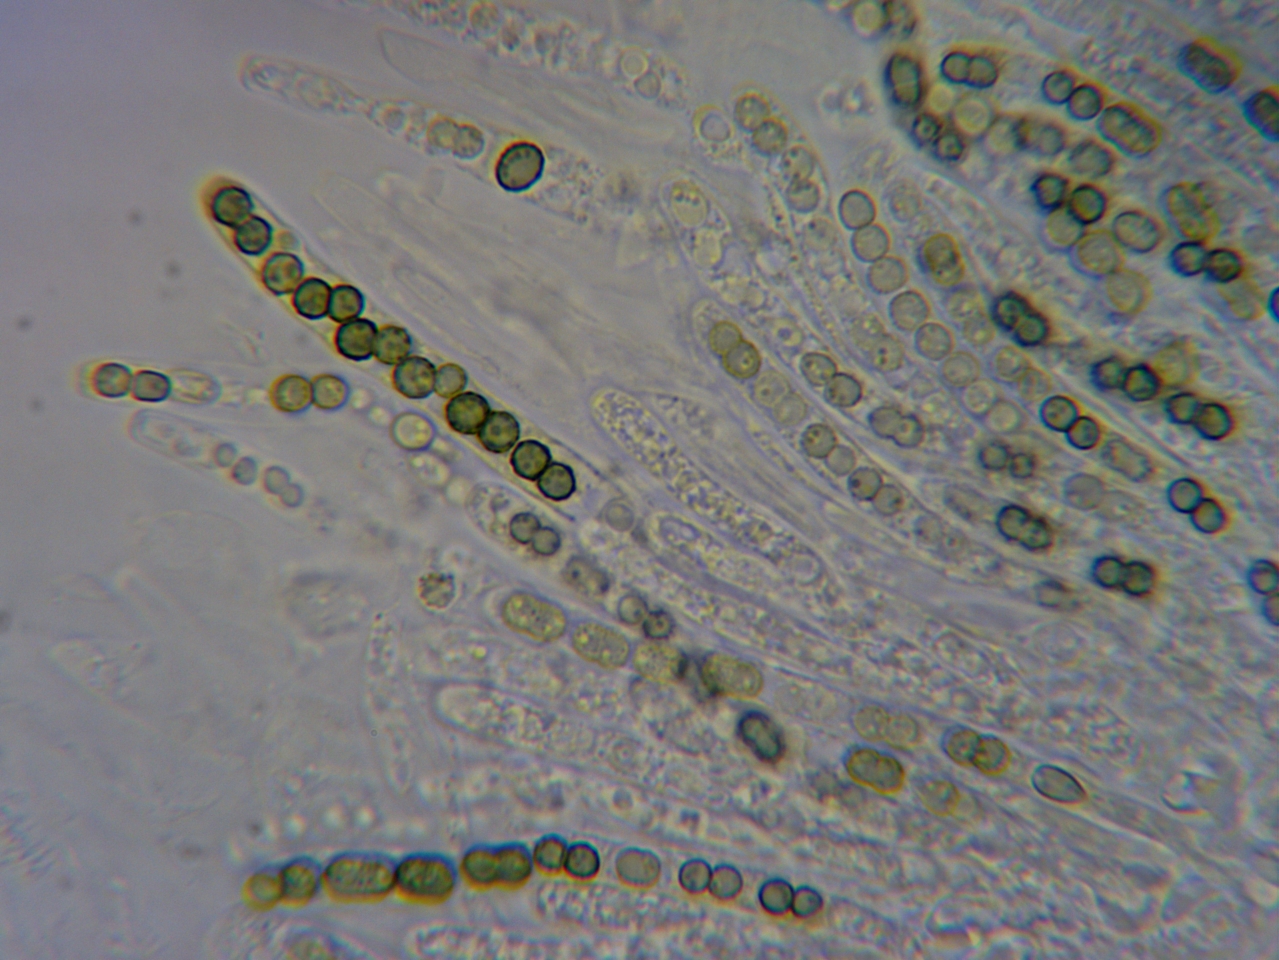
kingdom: Fungi
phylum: Ascomycota
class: Sordariomycetes
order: Hypocreales
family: Hypocreaceae
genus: Trichoderma
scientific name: Trichoderma aureoviride
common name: æggegul kødkerne
